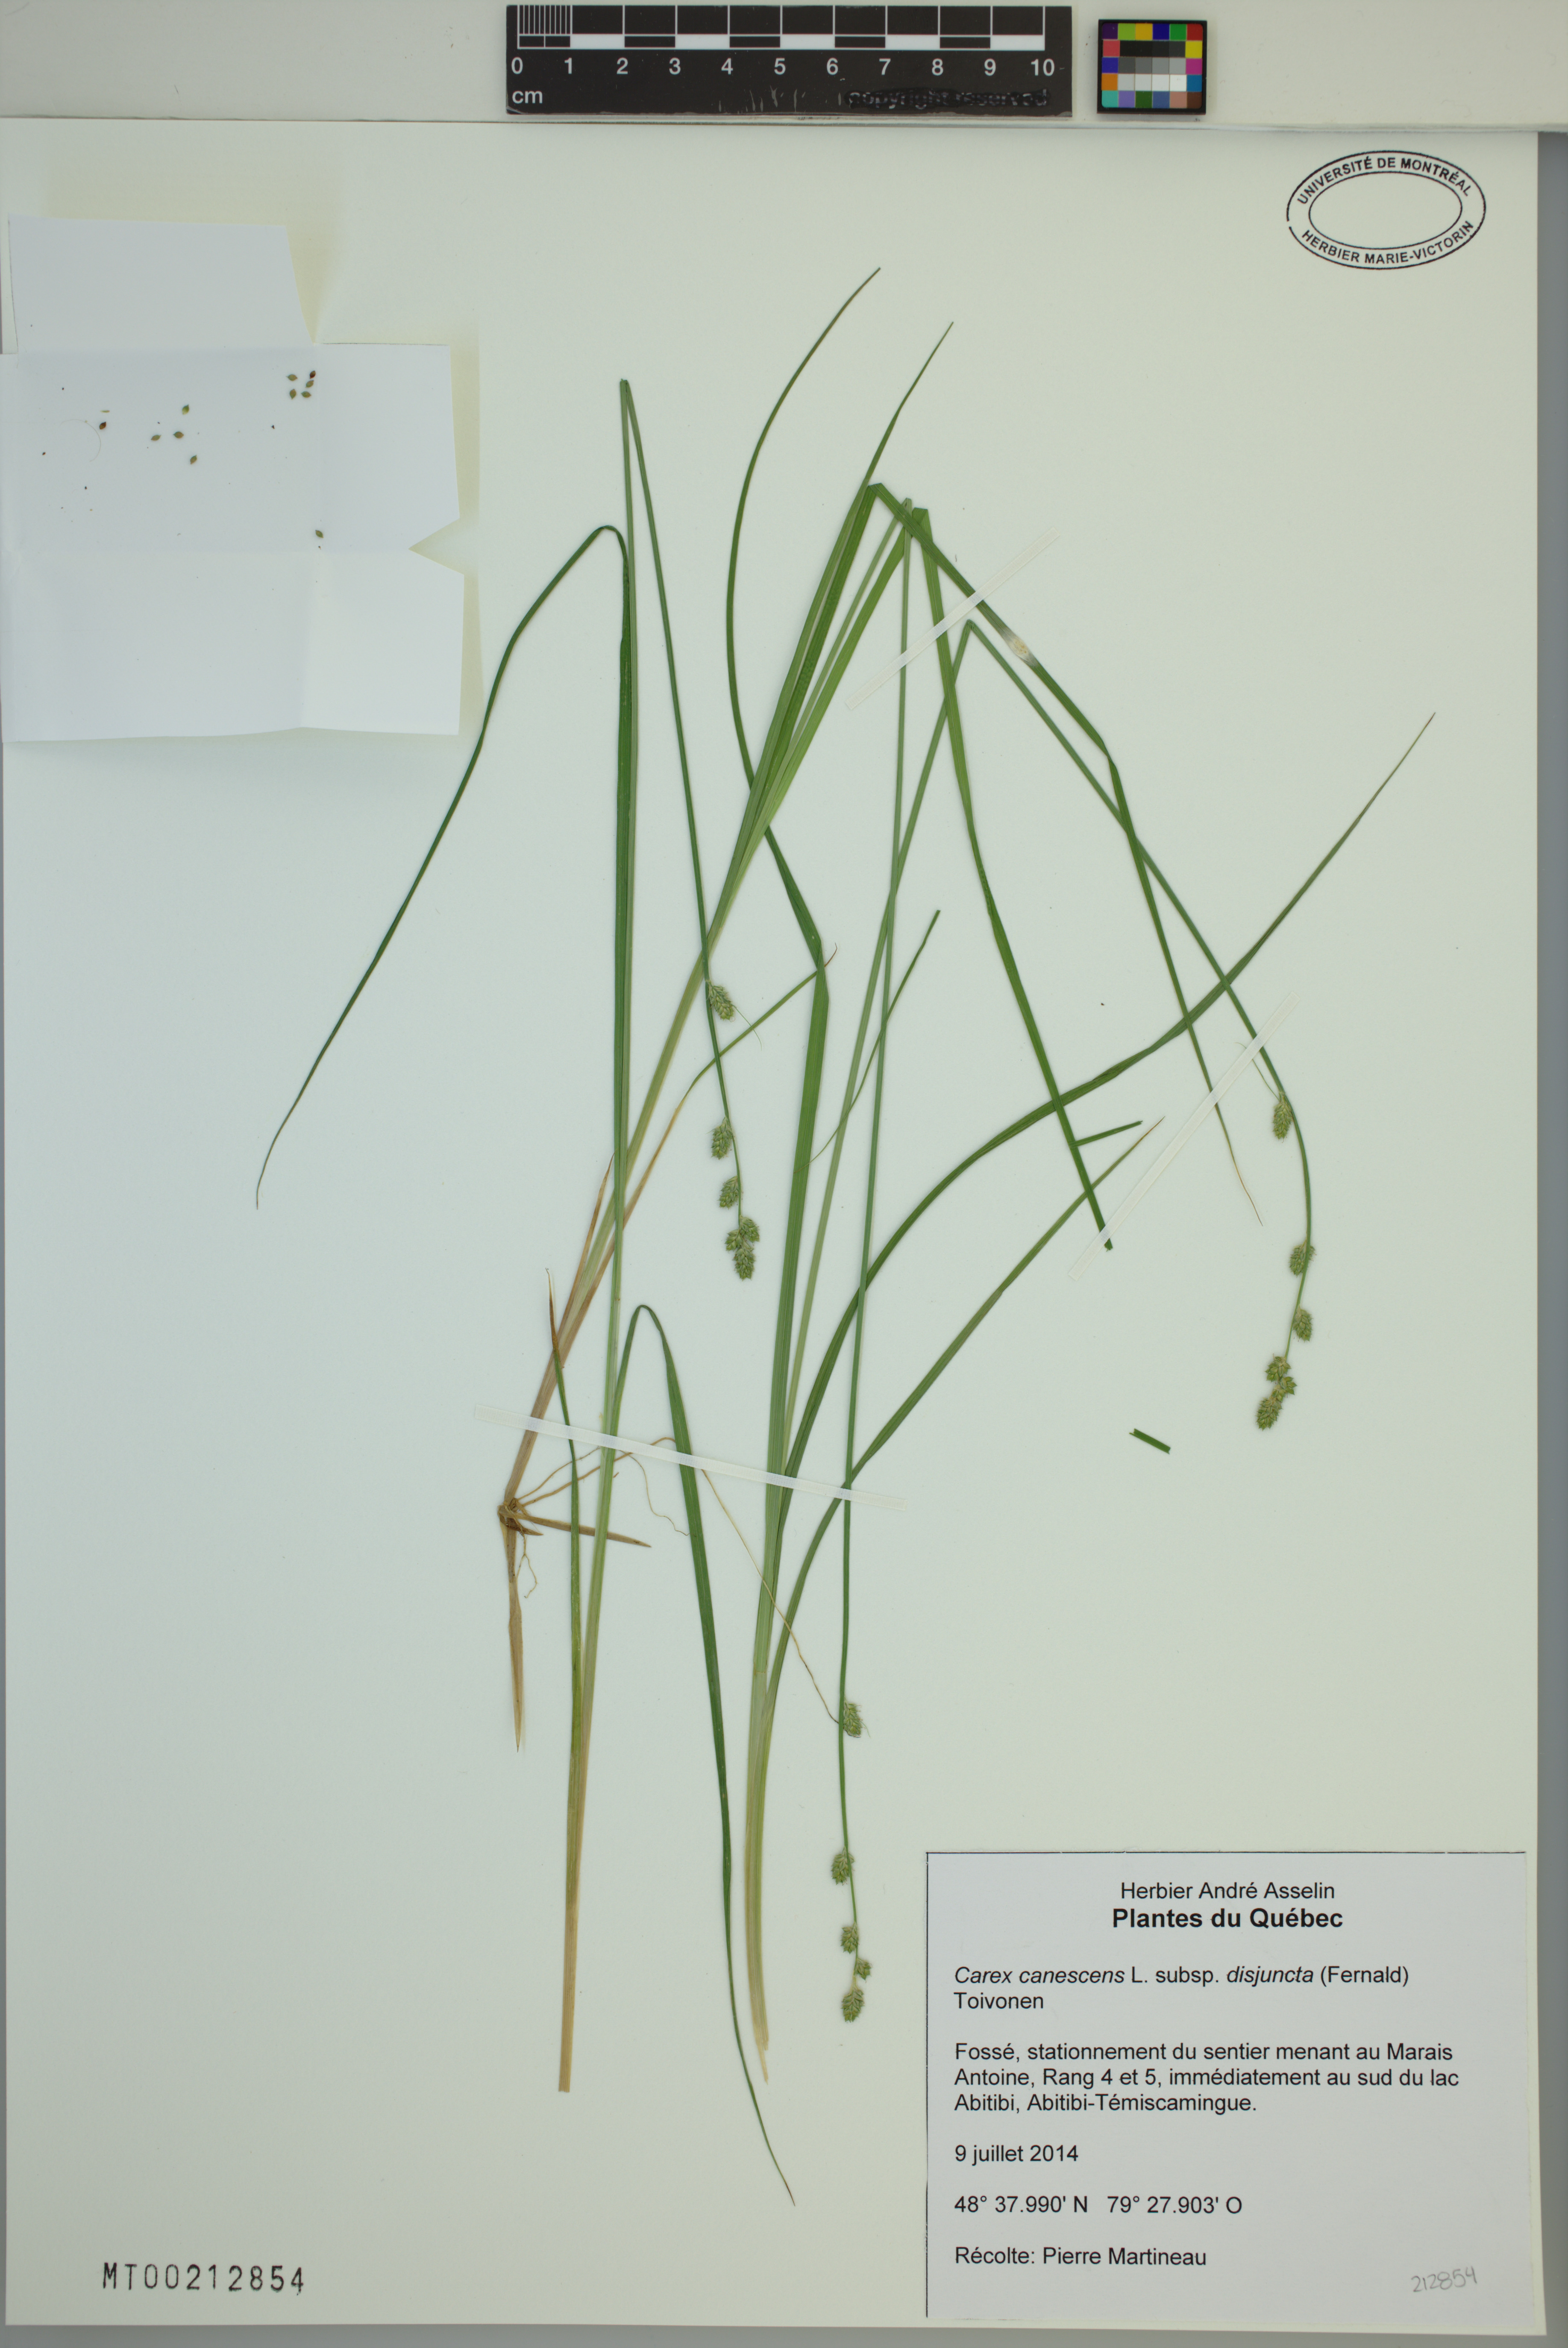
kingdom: Plantae
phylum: Tracheophyta
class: Liliopsida
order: Poales
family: Cyperaceae
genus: Carex
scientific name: Carex canescens
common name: White sedge
